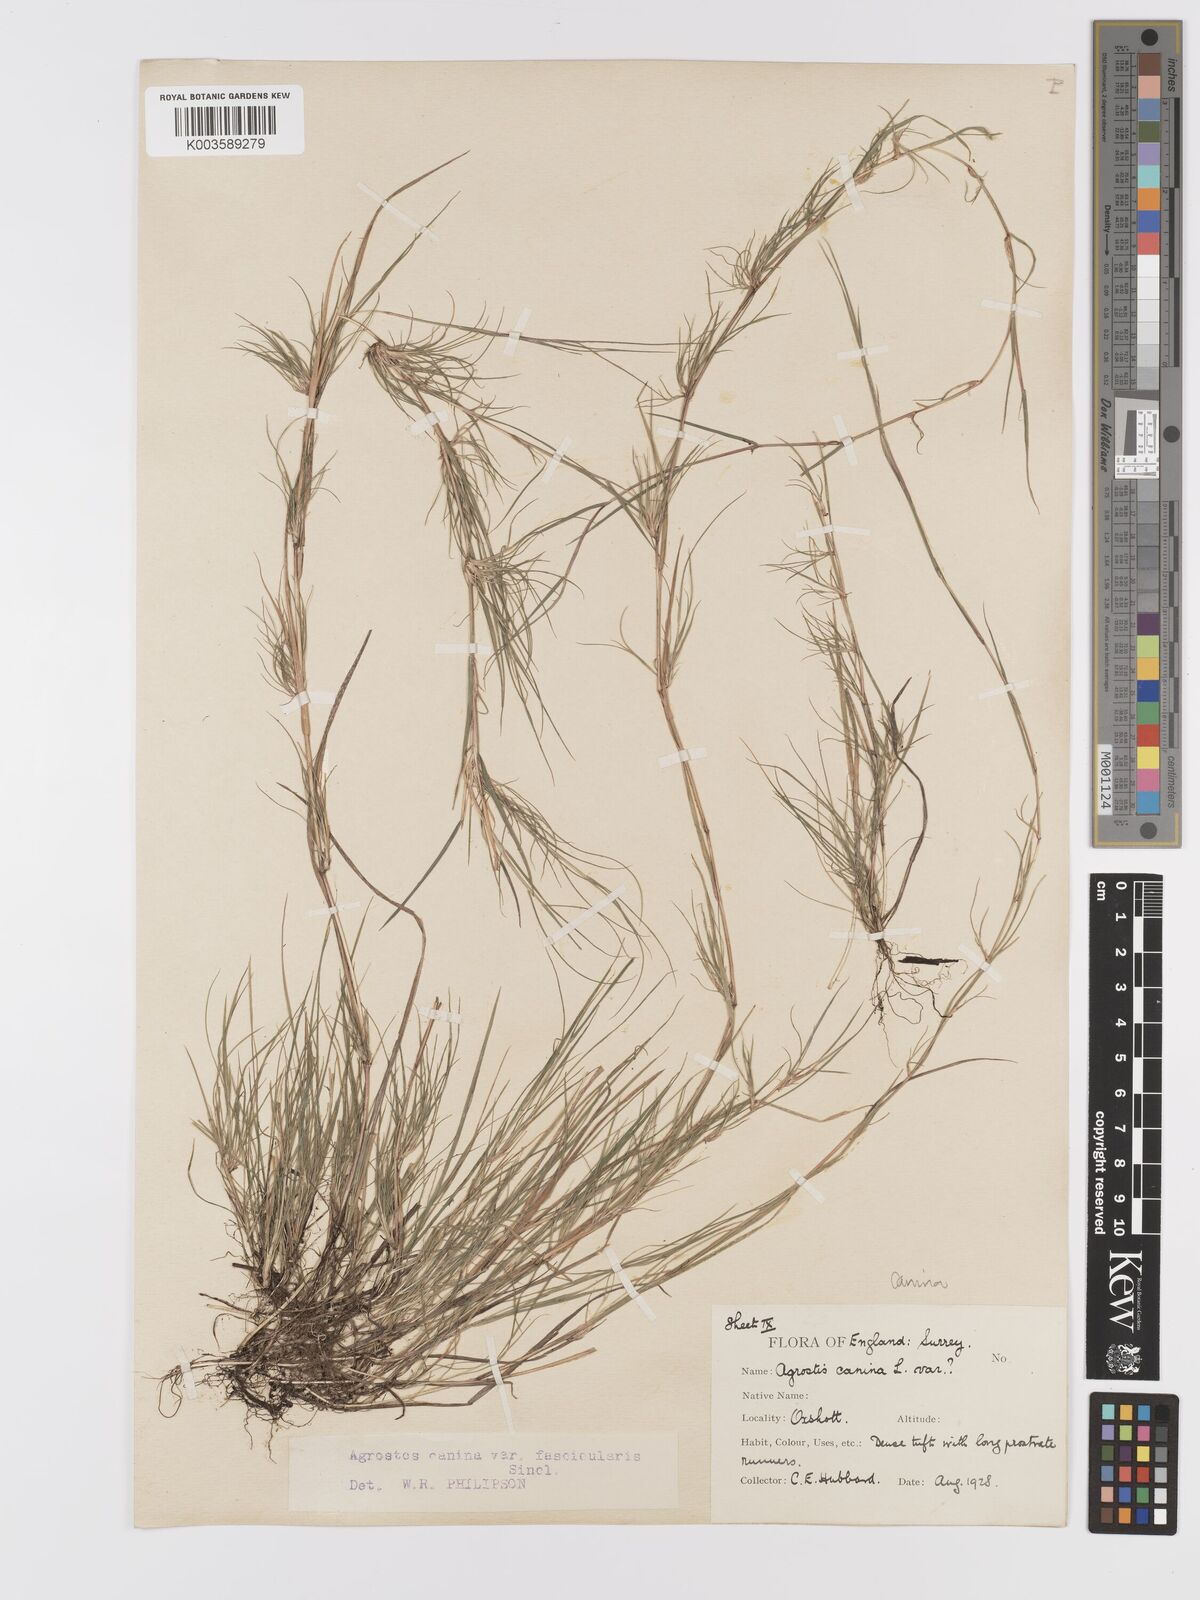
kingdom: Plantae
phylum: Tracheophyta
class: Liliopsida
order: Poales
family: Poaceae
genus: Agrostis
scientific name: Agrostis canina
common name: Velvet bent
